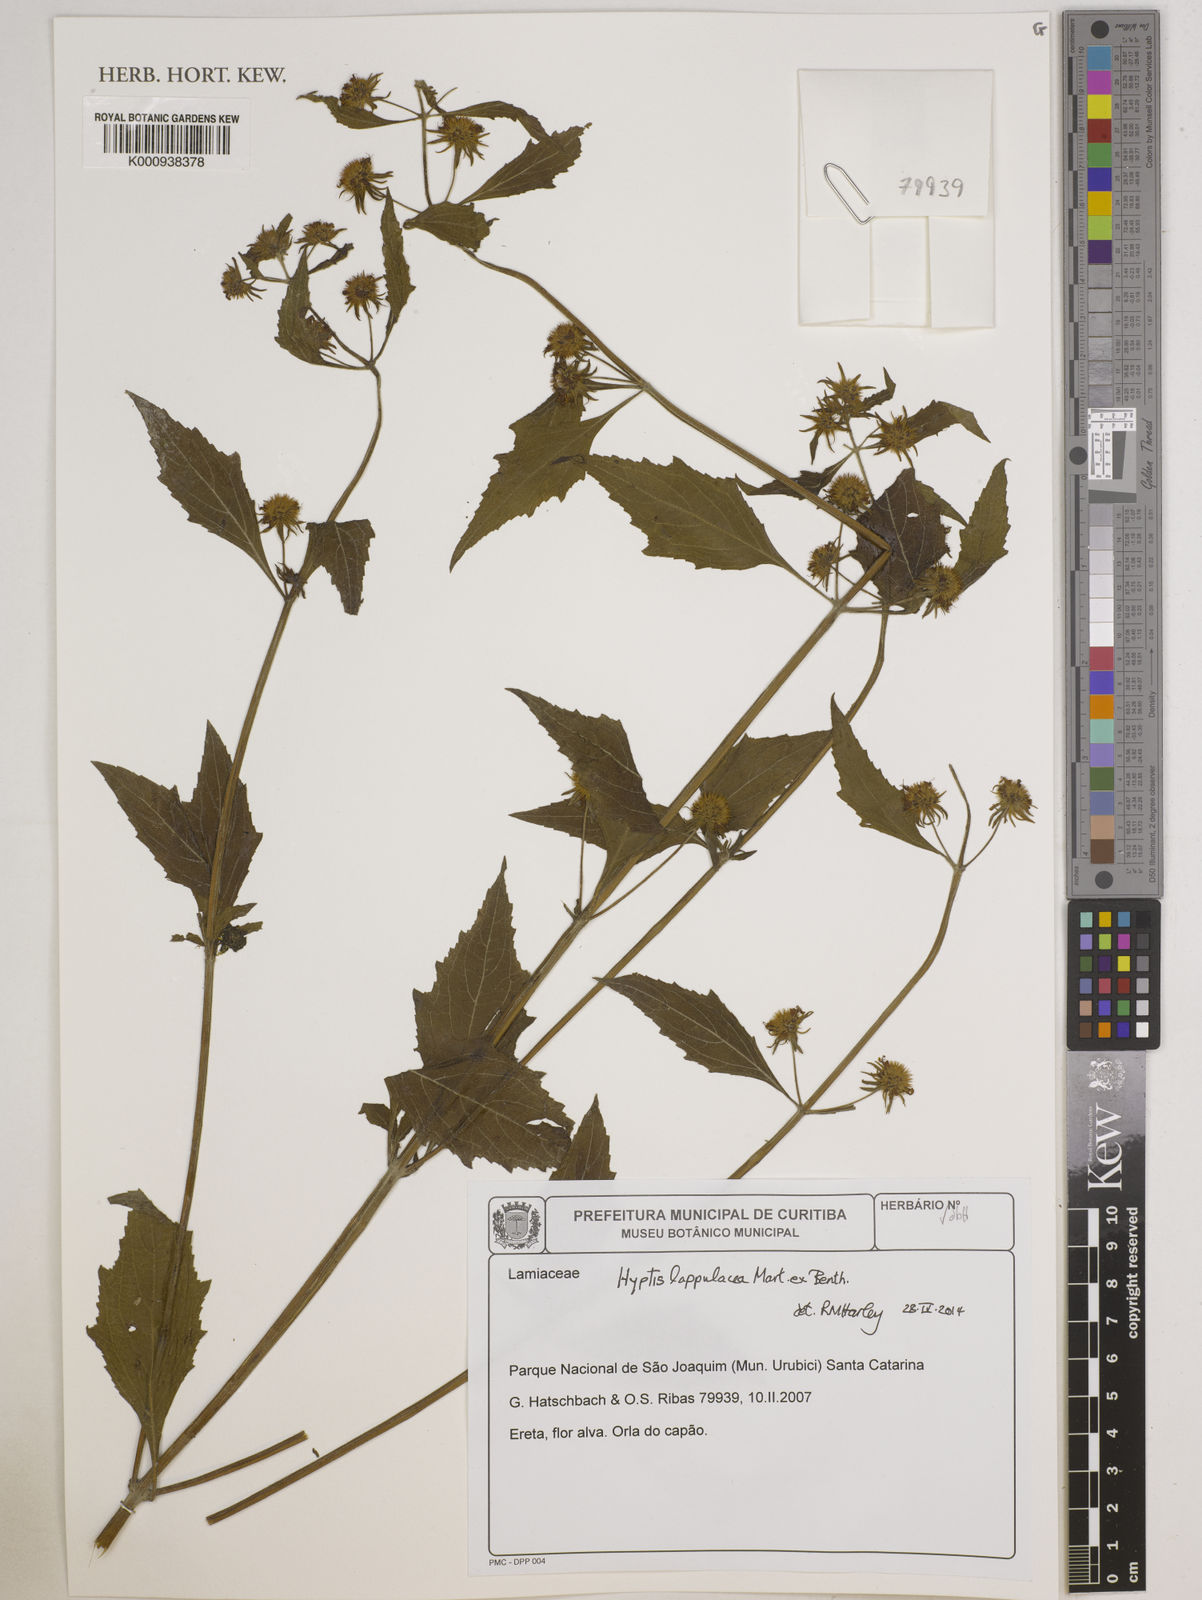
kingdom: Plantae
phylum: Tracheophyta
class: Magnoliopsida
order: Lamiales
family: Lamiaceae
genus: Hyptis
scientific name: Hyptis lappulacea
